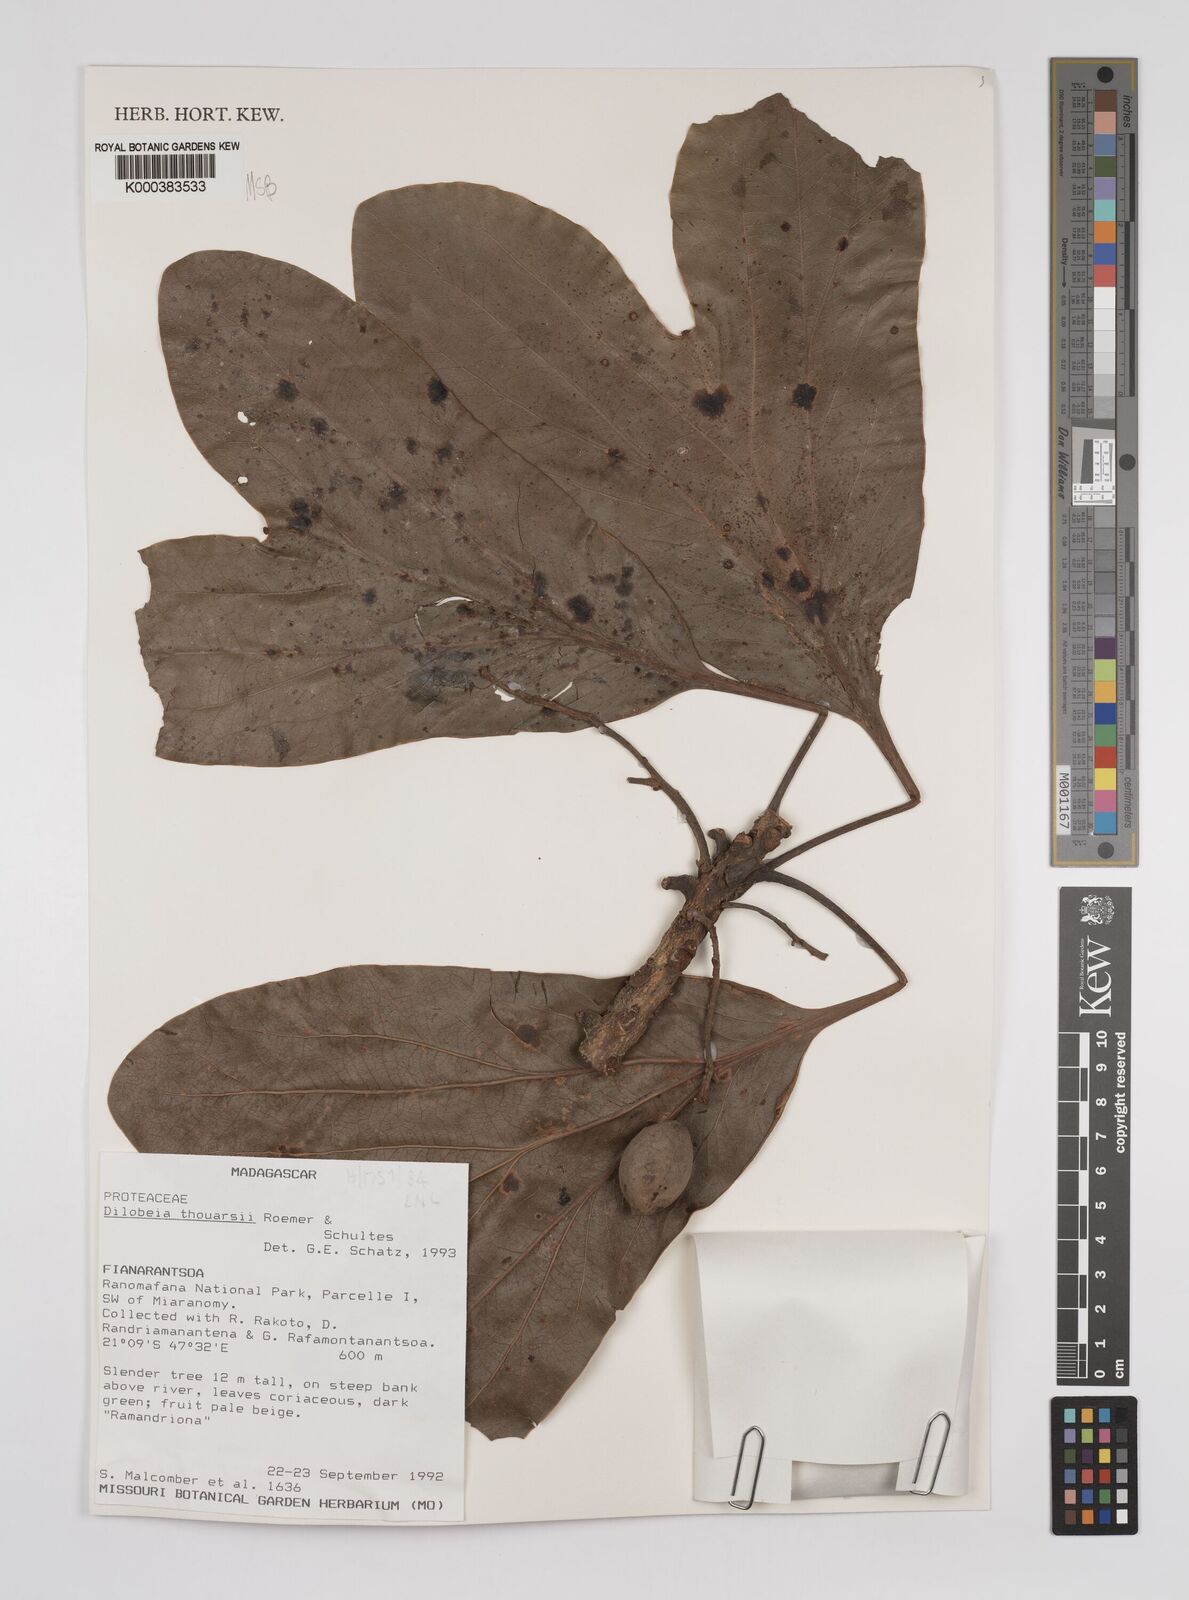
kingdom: Plantae
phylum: Tracheophyta
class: Magnoliopsida
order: Proteales
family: Proteaceae
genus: Dilobeia
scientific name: Dilobeia thouarsii
